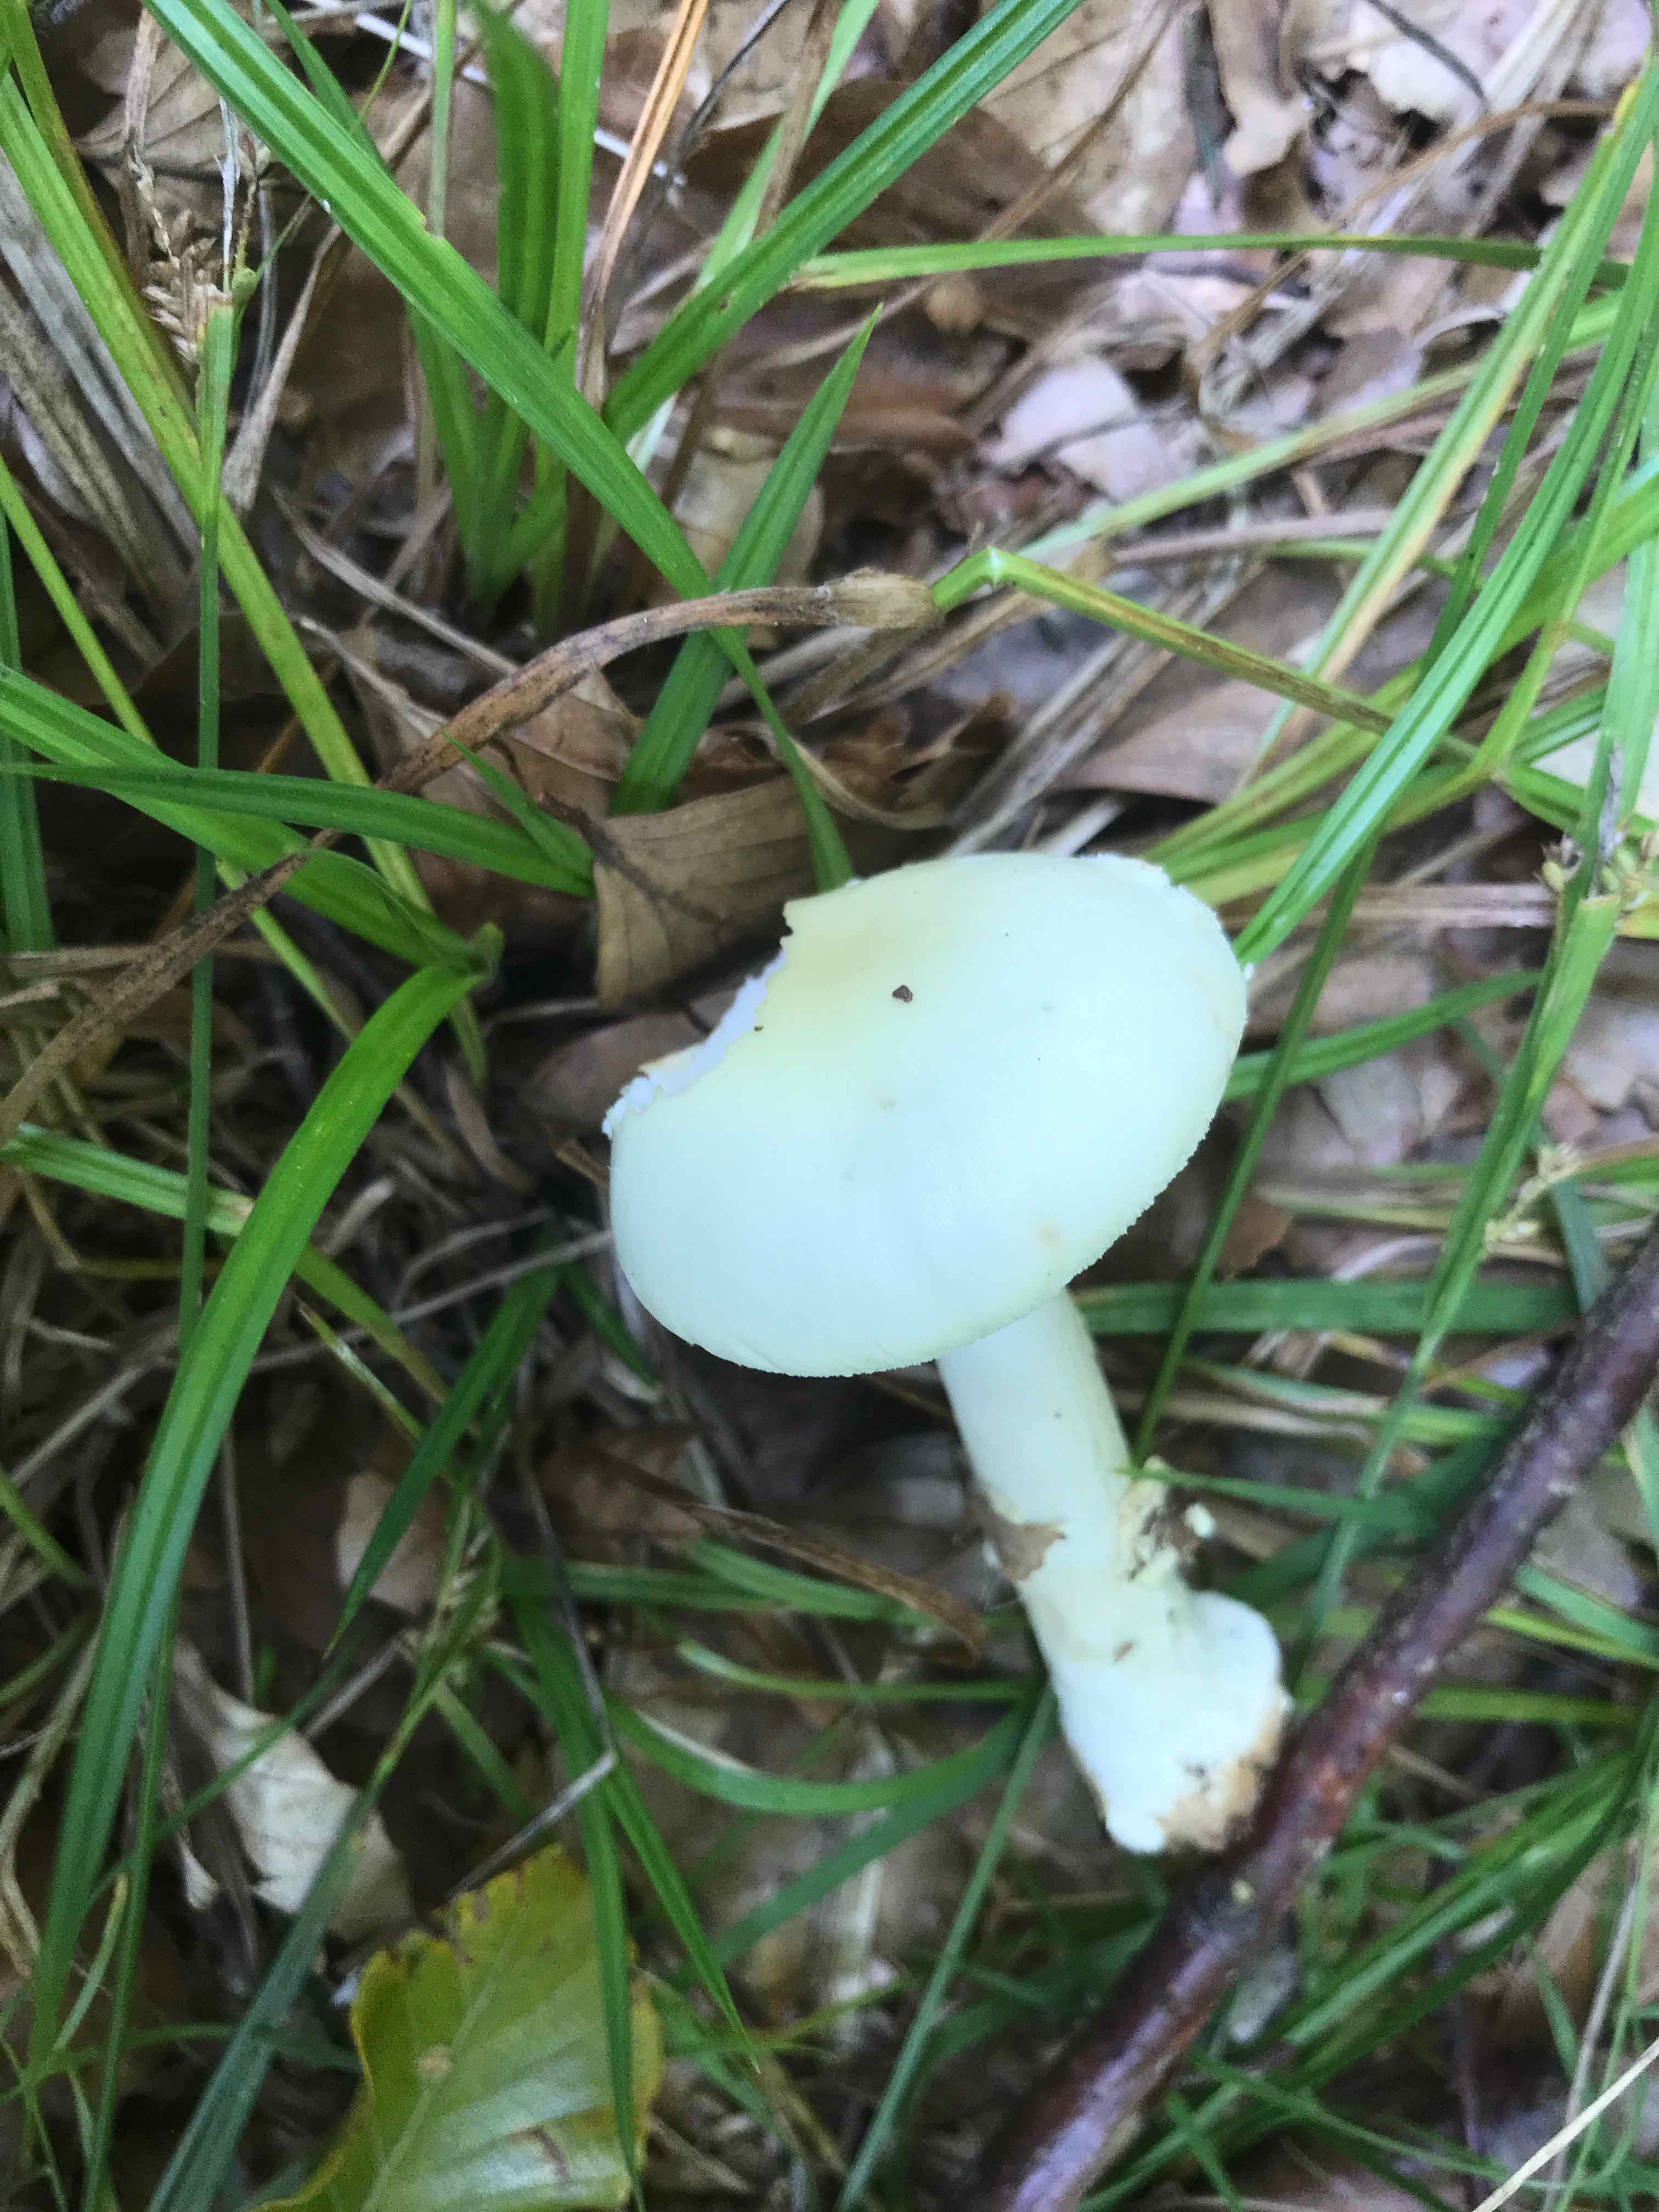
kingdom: Fungi
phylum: Basidiomycota
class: Agaricomycetes
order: Agaricales
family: Amanitaceae
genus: Amanita
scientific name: Amanita phalloides
